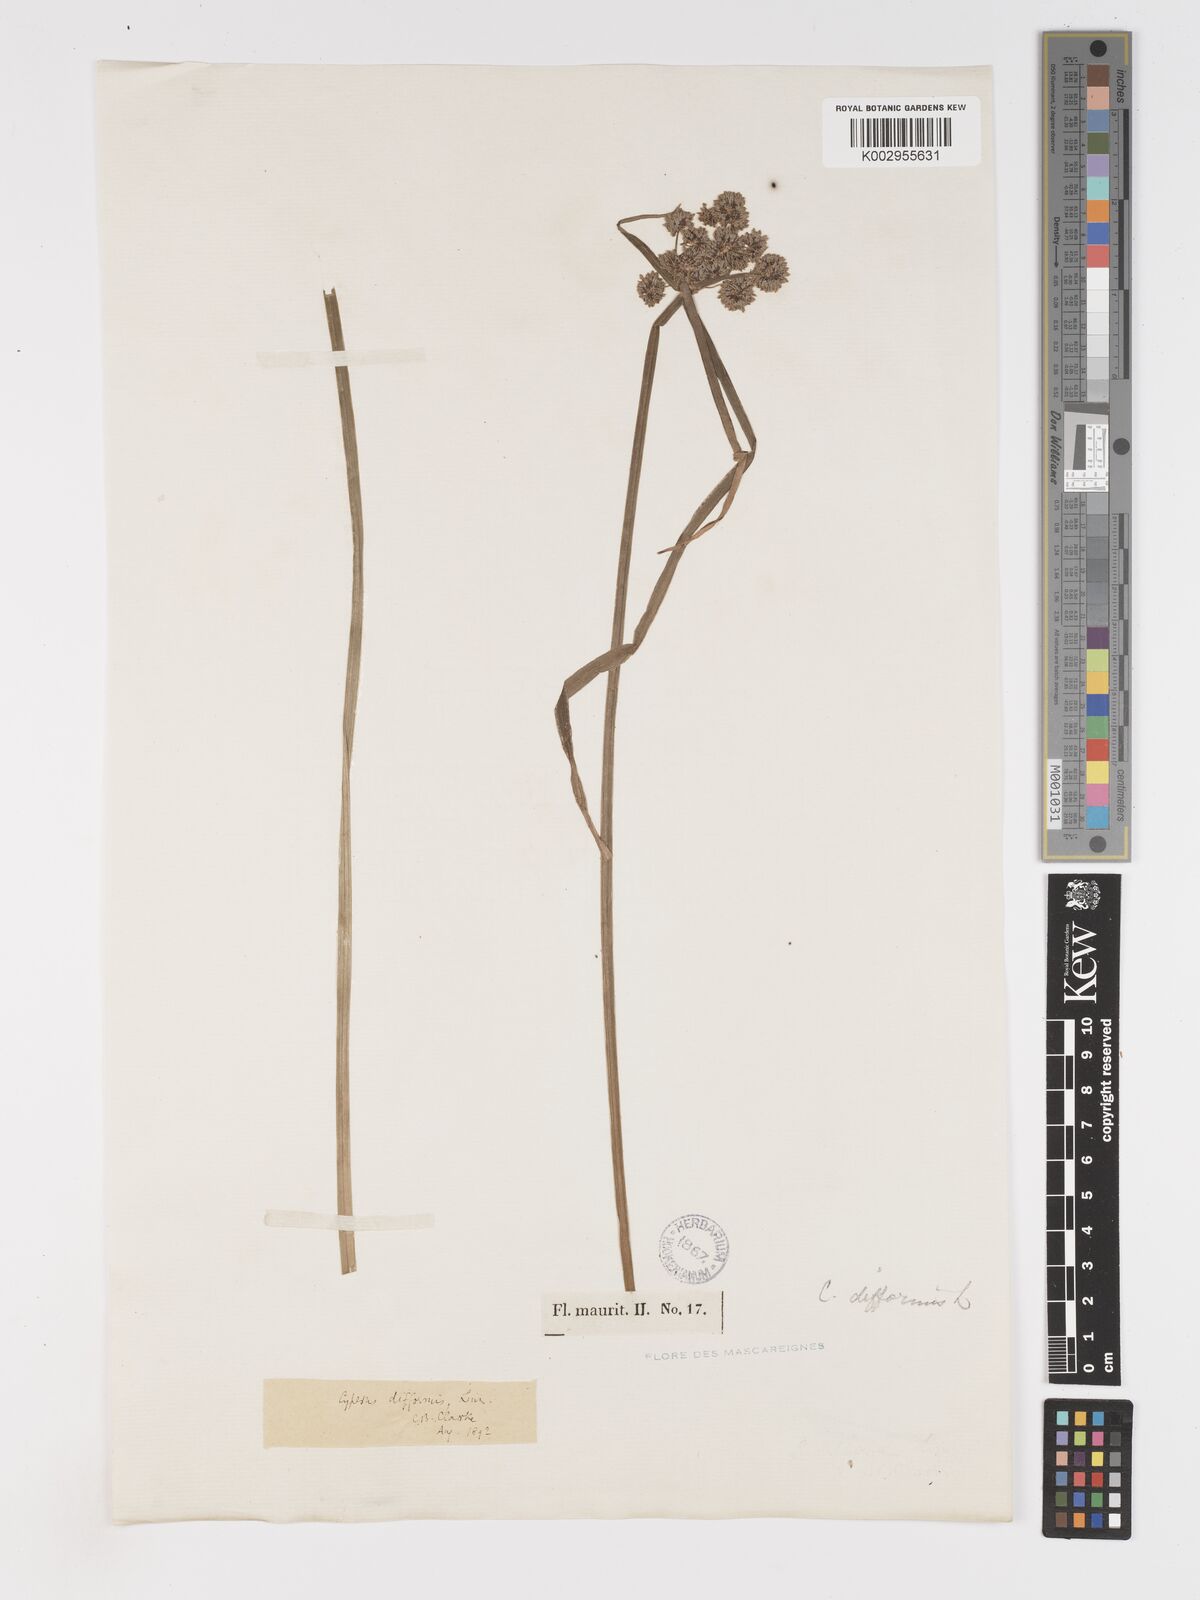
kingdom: Plantae
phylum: Tracheophyta
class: Liliopsida
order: Poales
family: Cyperaceae
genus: Cyperus
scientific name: Cyperus difformis
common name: Variable flatsedge
